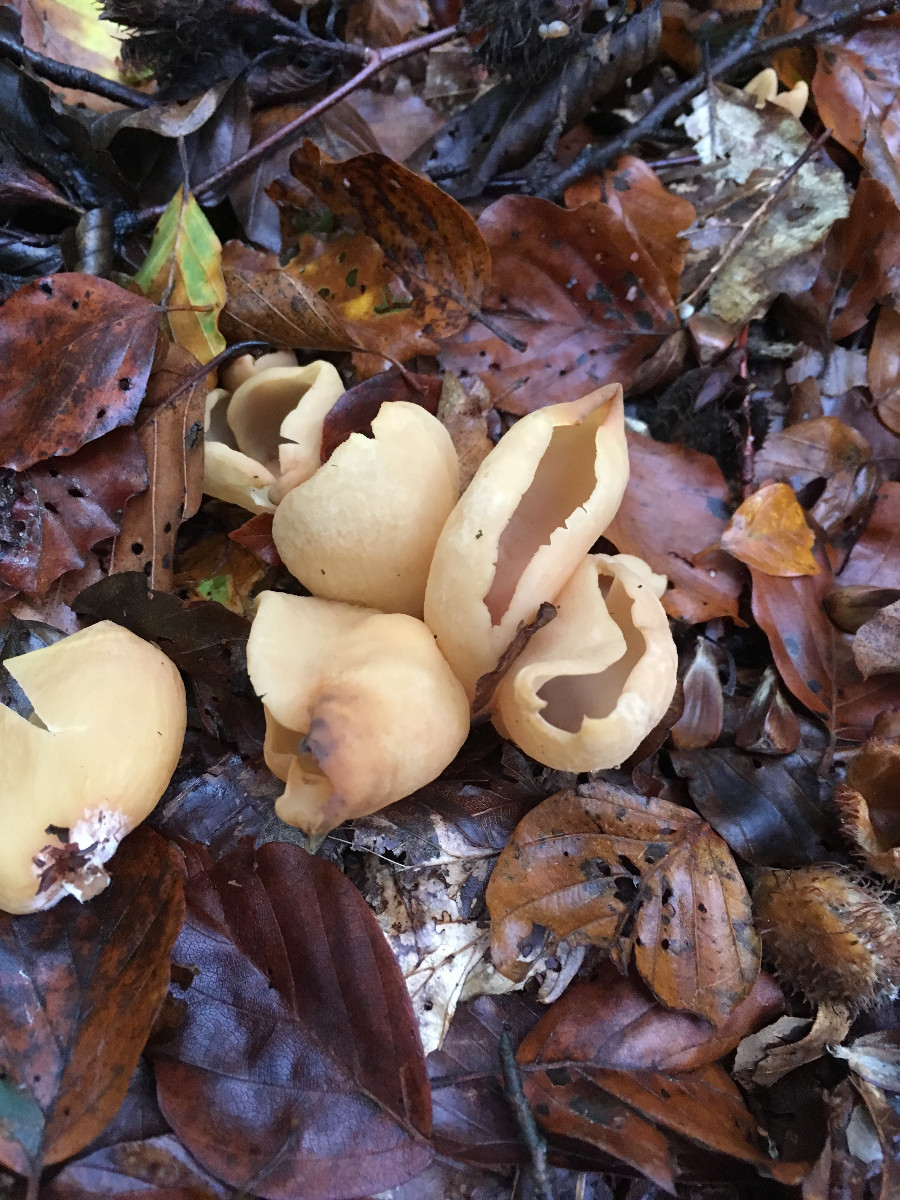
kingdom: Fungi
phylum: Ascomycota
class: Pezizomycetes
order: Pezizales
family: Otideaceae
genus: Otidea
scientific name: Otidea alutacea
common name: læder-ørebæger
